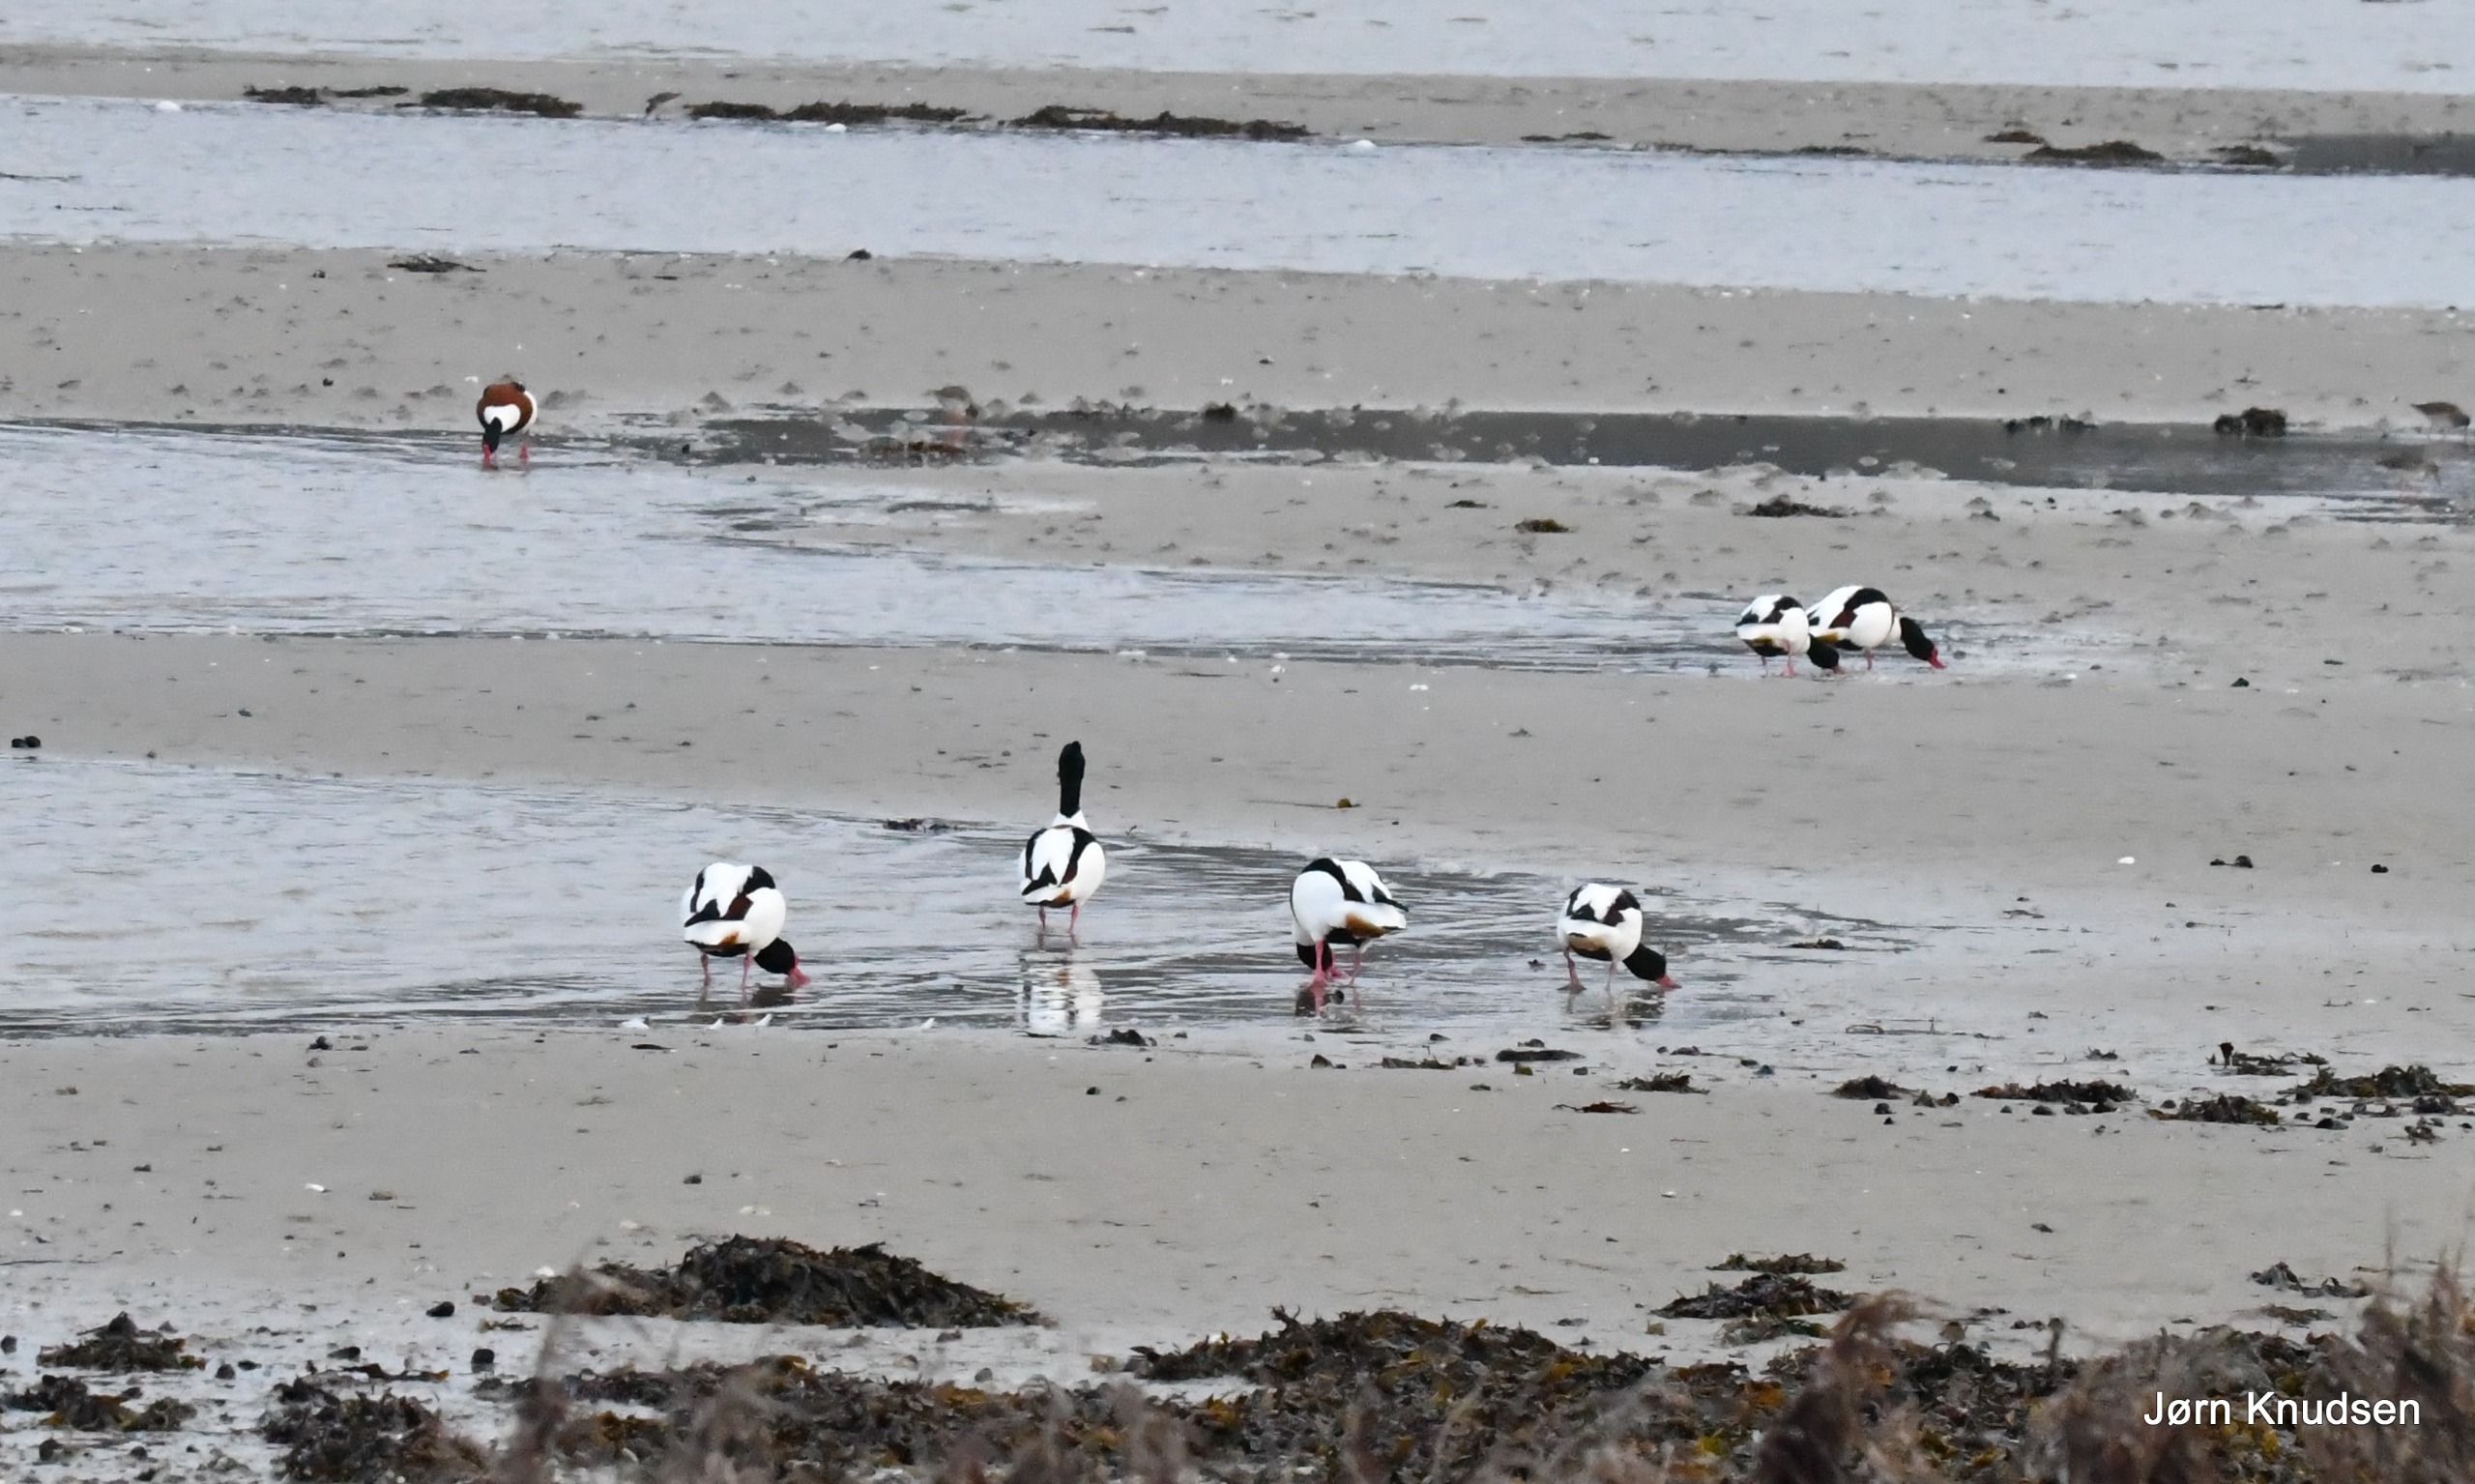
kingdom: Animalia
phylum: Chordata
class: Aves
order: Anseriformes
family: Anatidae
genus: Tadorna
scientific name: Tadorna tadorna
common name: Gravand
